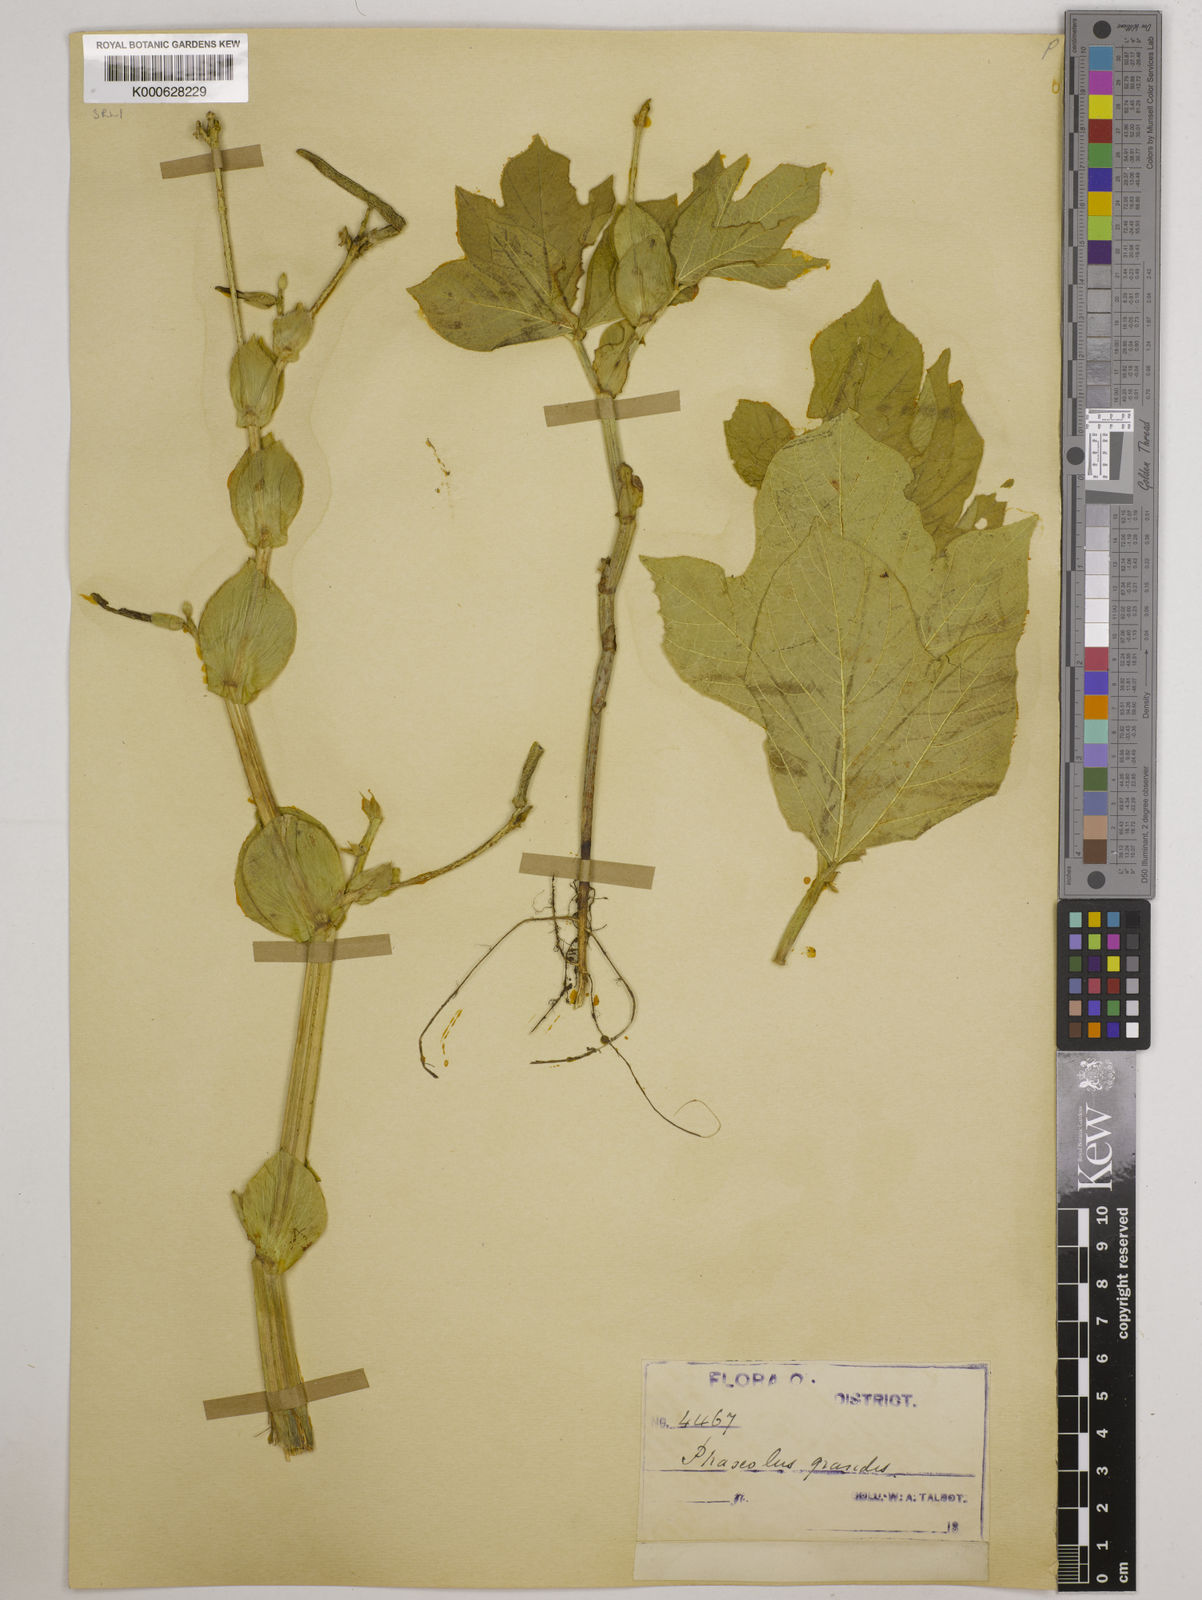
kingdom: Plantae
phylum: Tracheophyta
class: Magnoliopsida
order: Fabales
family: Fabaceae
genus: Vigna
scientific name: Vigna khandalensis
